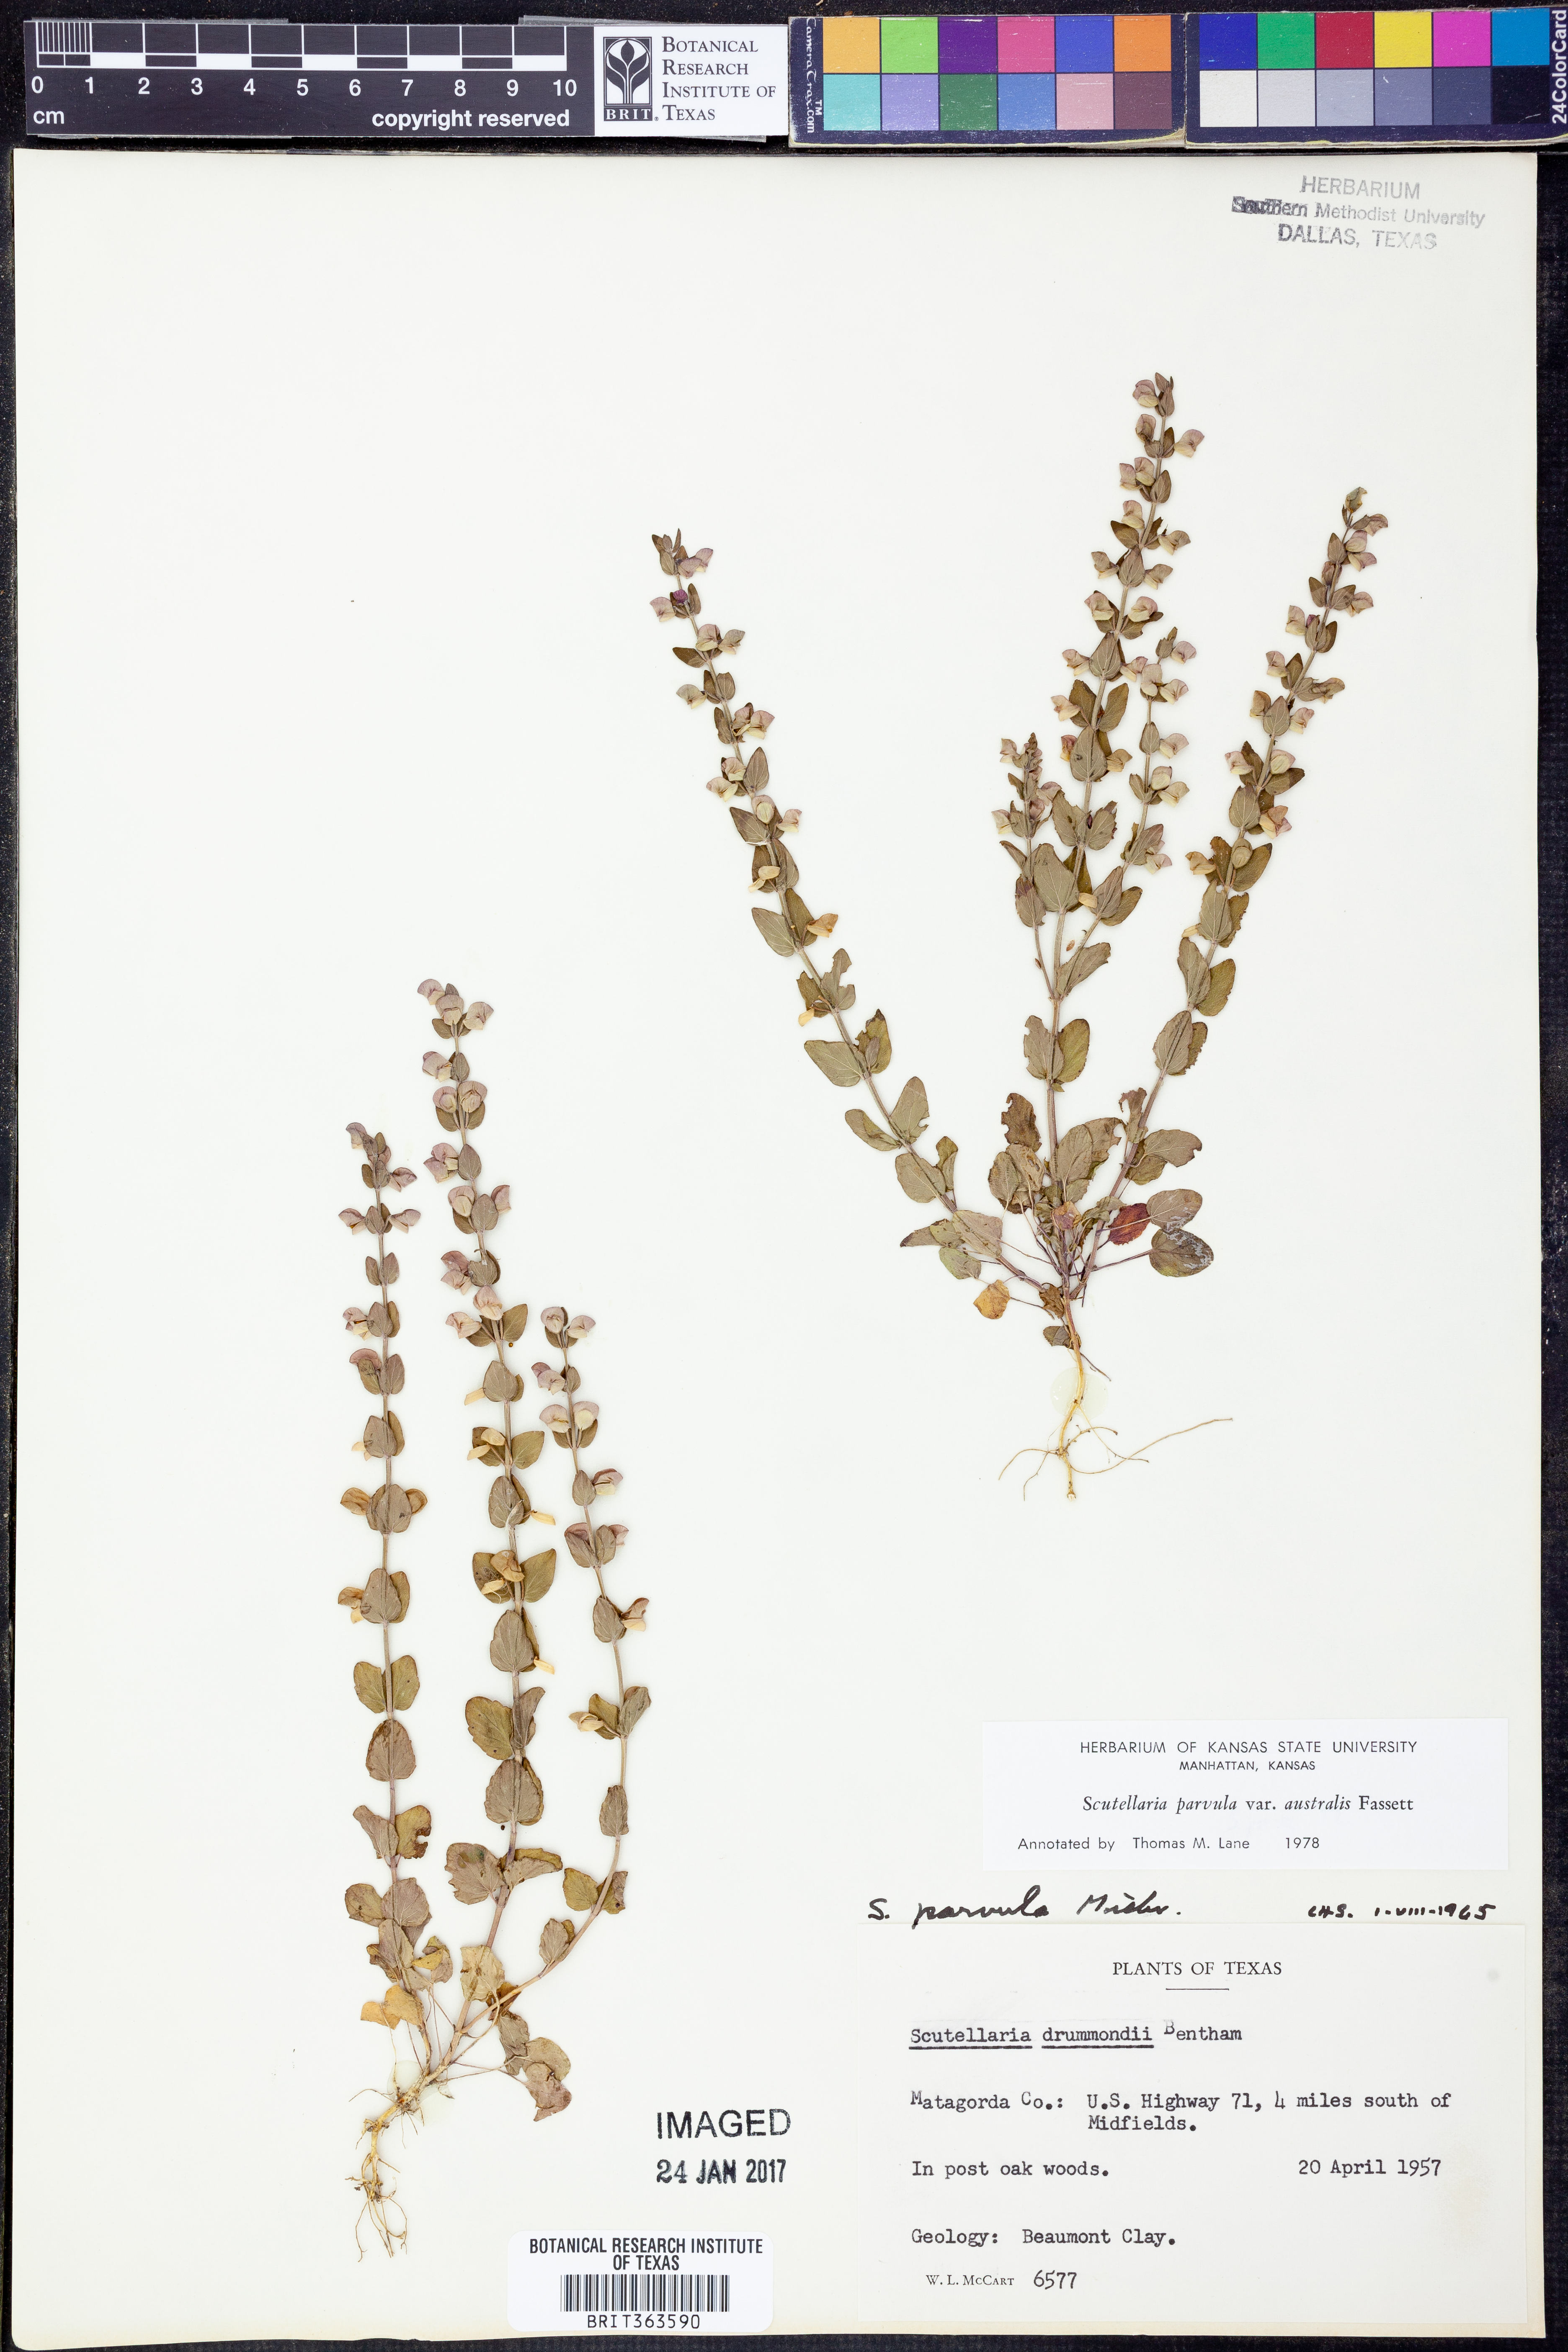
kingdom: Plantae
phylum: Tracheophyta
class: Magnoliopsida
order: Lamiales
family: Lamiaceae
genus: Scutellaria
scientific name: Scutellaria parvula
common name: Little scullcap
